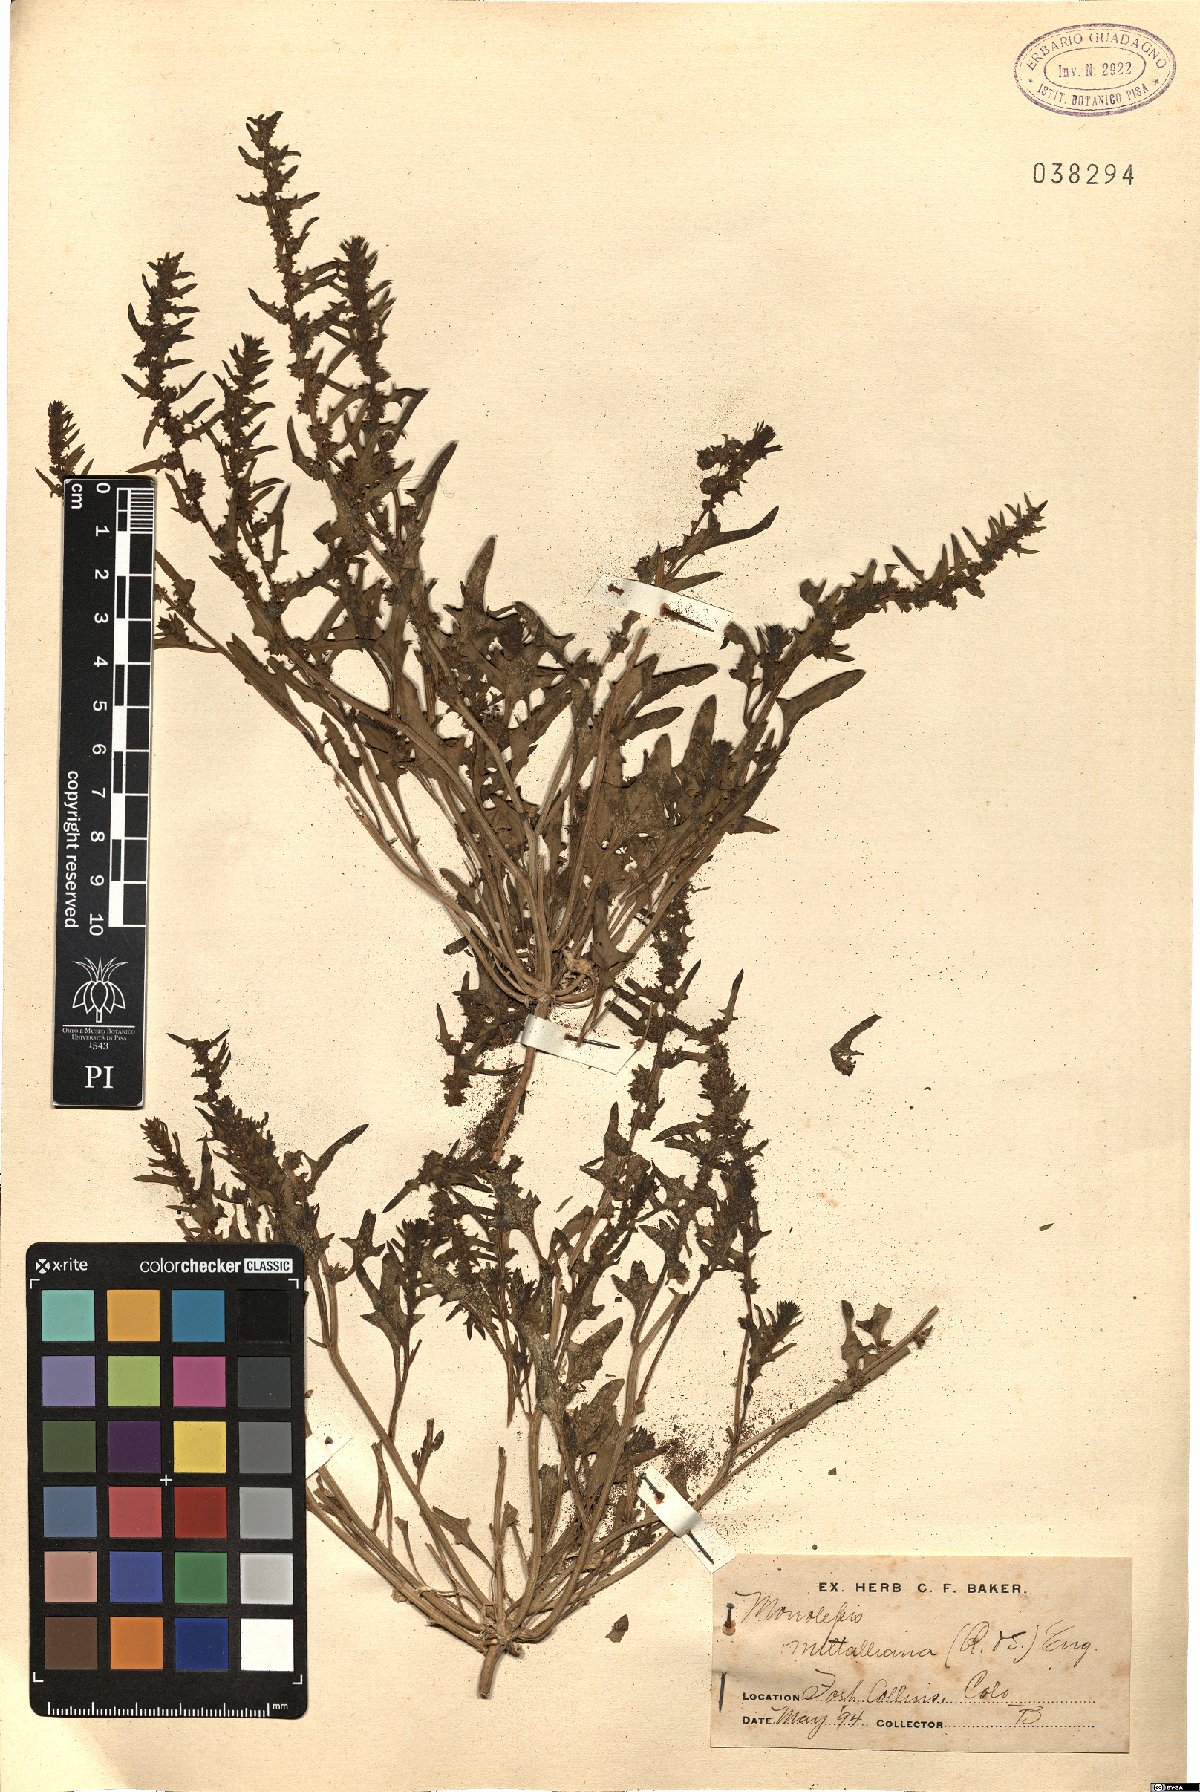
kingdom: Plantae
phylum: Tracheophyta
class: Magnoliopsida
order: Caryophyllales
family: Amaranthaceae
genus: Blitum
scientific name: Blitum nuttallianum
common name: Poverty-weed
